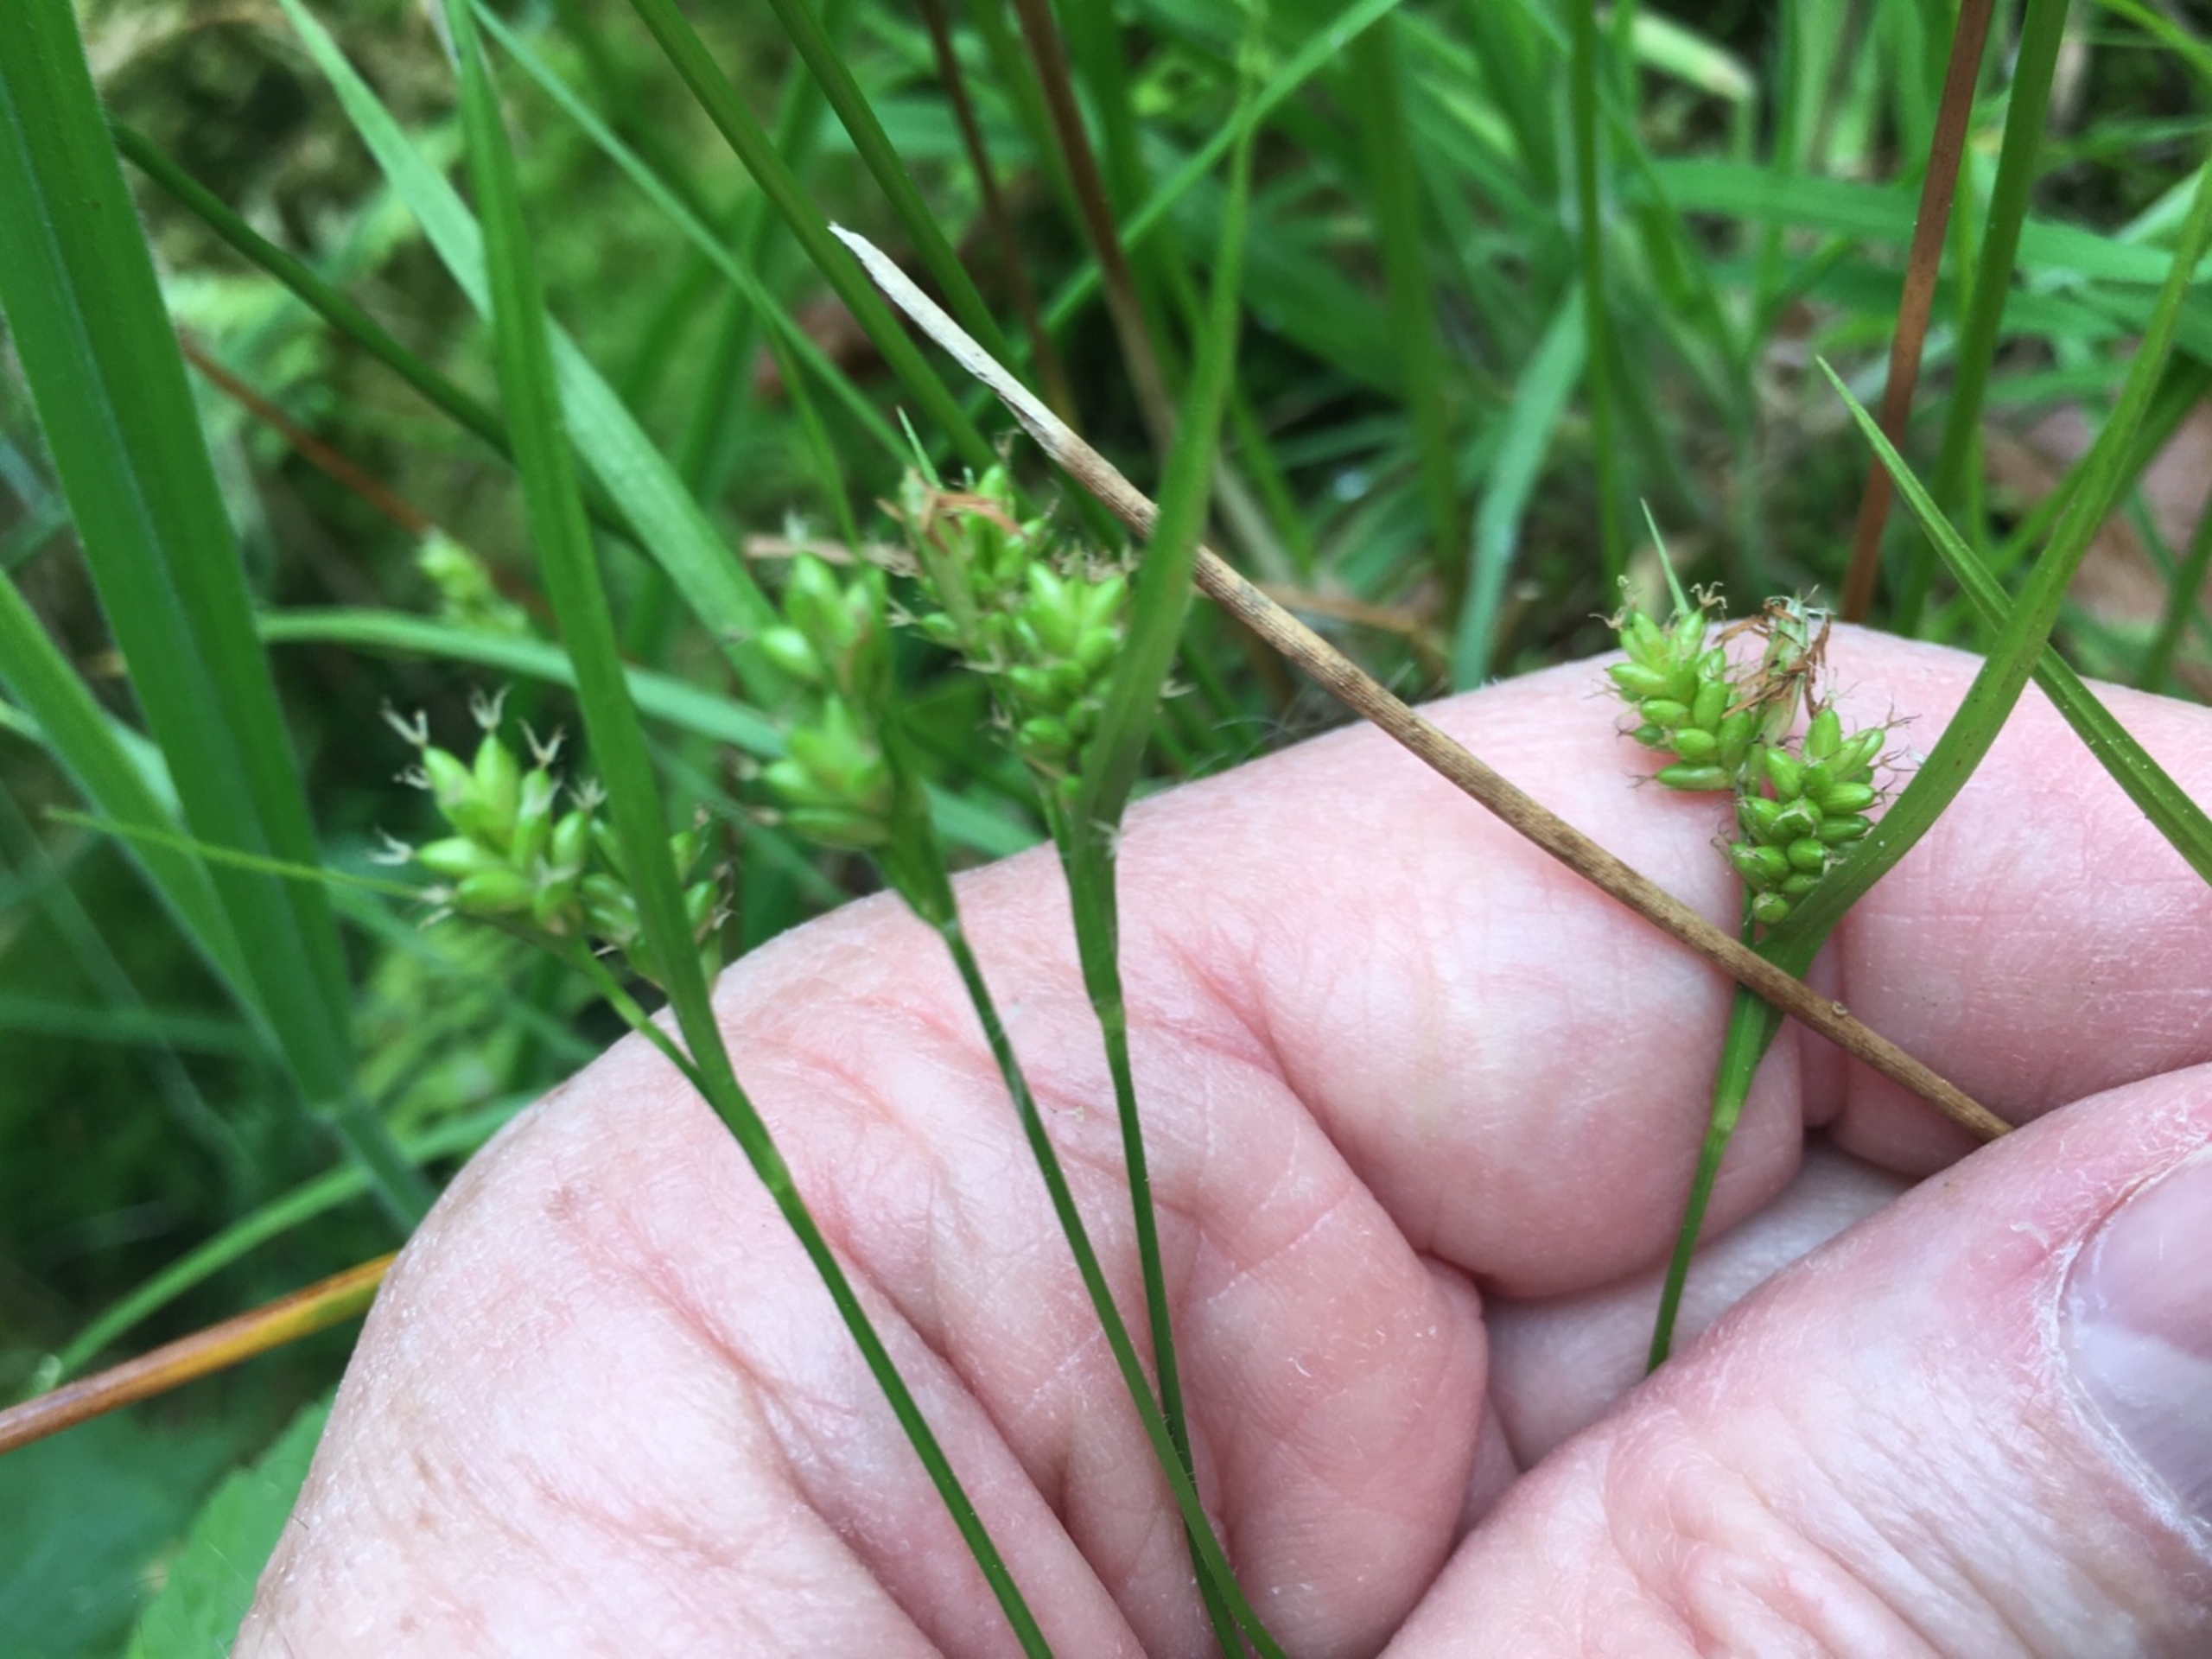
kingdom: Plantae
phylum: Tracheophyta
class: Liliopsida
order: Poales
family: Cyperaceae
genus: Carex
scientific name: Carex pallescens
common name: Bleg star
